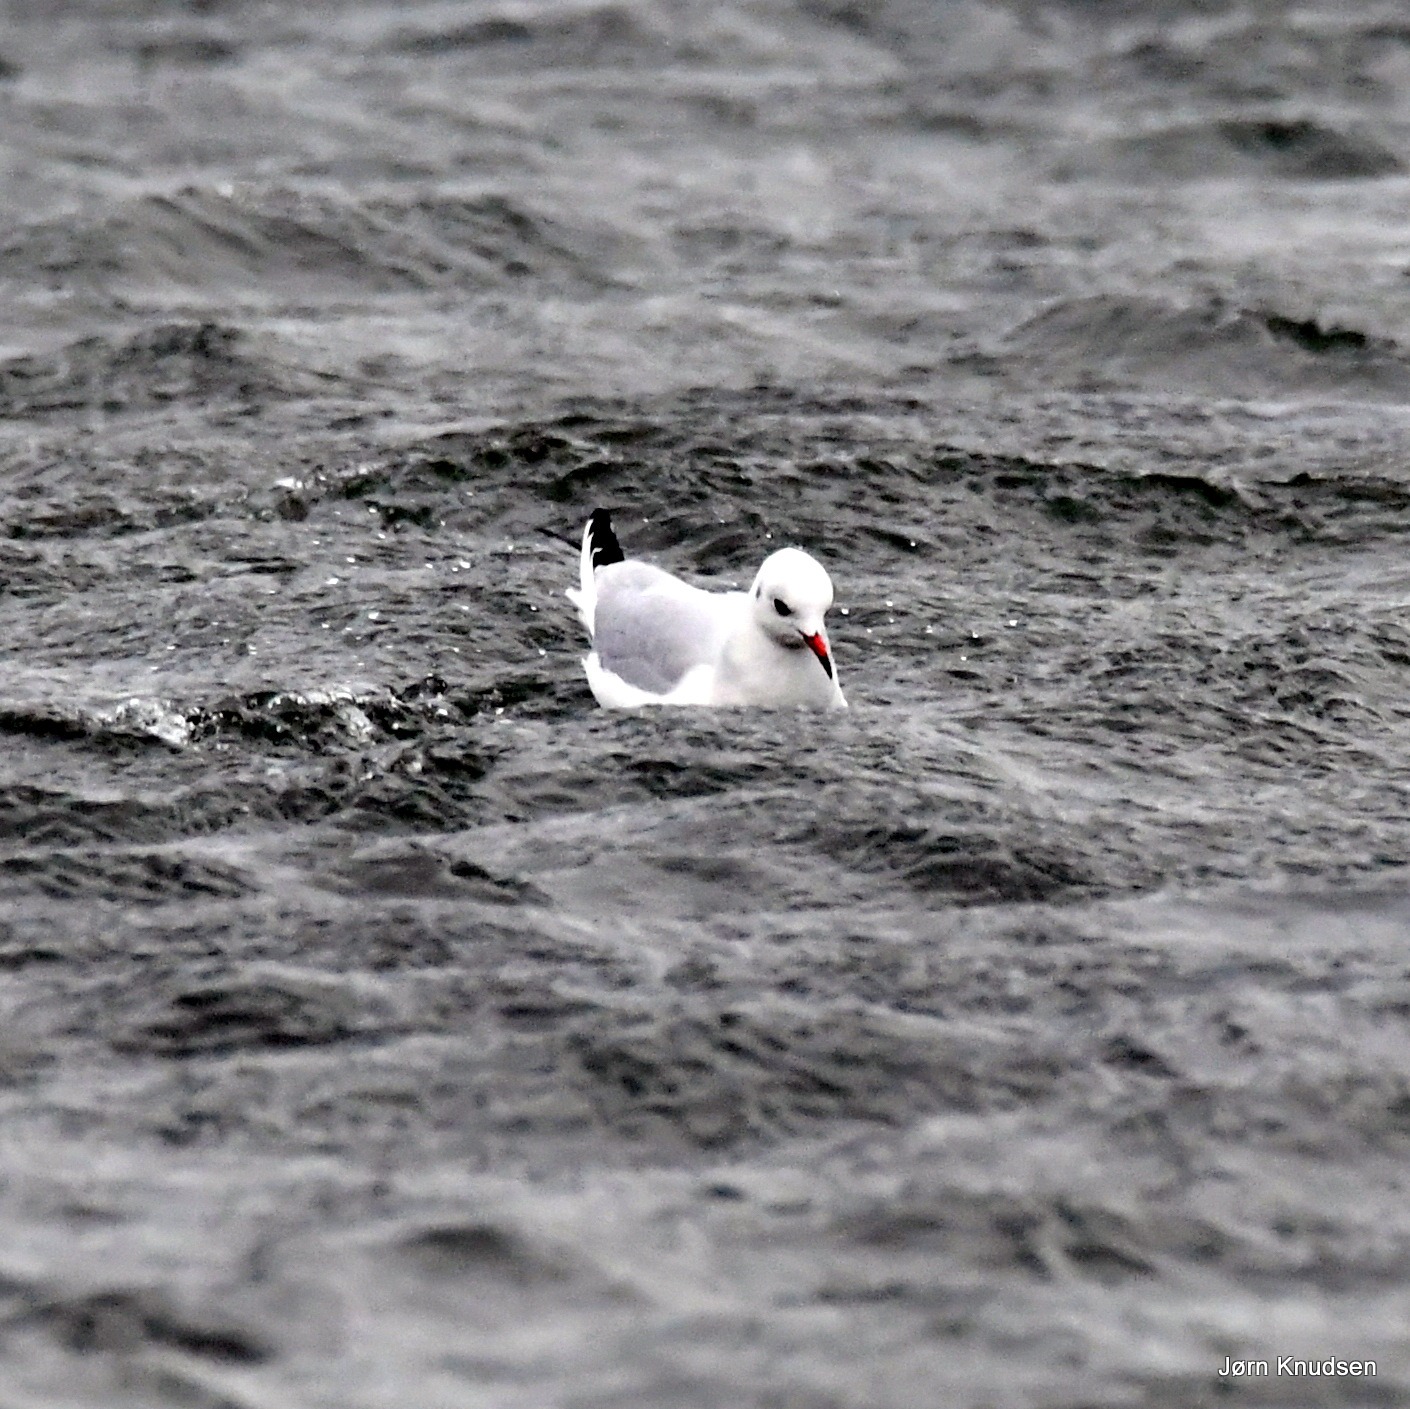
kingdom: Animalia
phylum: Chordata
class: Aves
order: Charadriiformes
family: Laridae
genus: Chroicocephalus
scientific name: Chroicocephalus ridibundus
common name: Hættemåge
